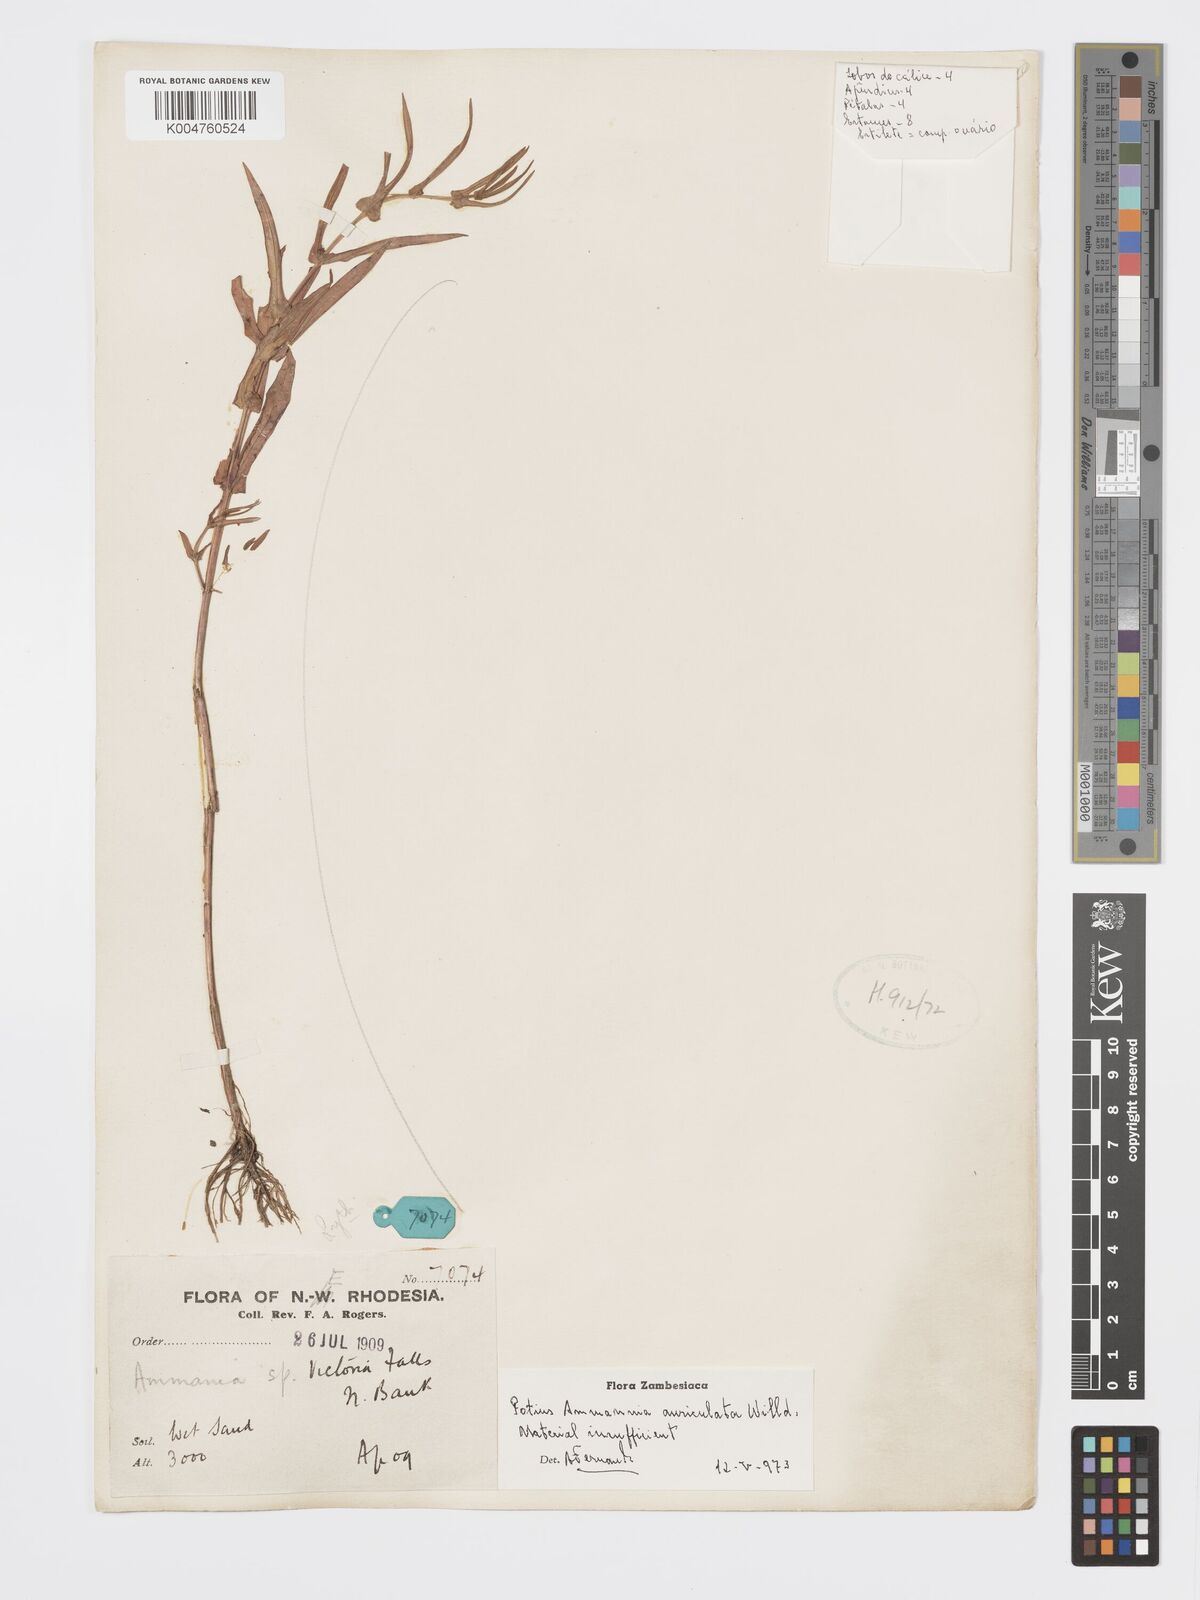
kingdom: Plantae
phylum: Tracheophyta
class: Magnoliopsida
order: Myrtales
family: Lythraceae
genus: Ammannia
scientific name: Ammannia auriculata
